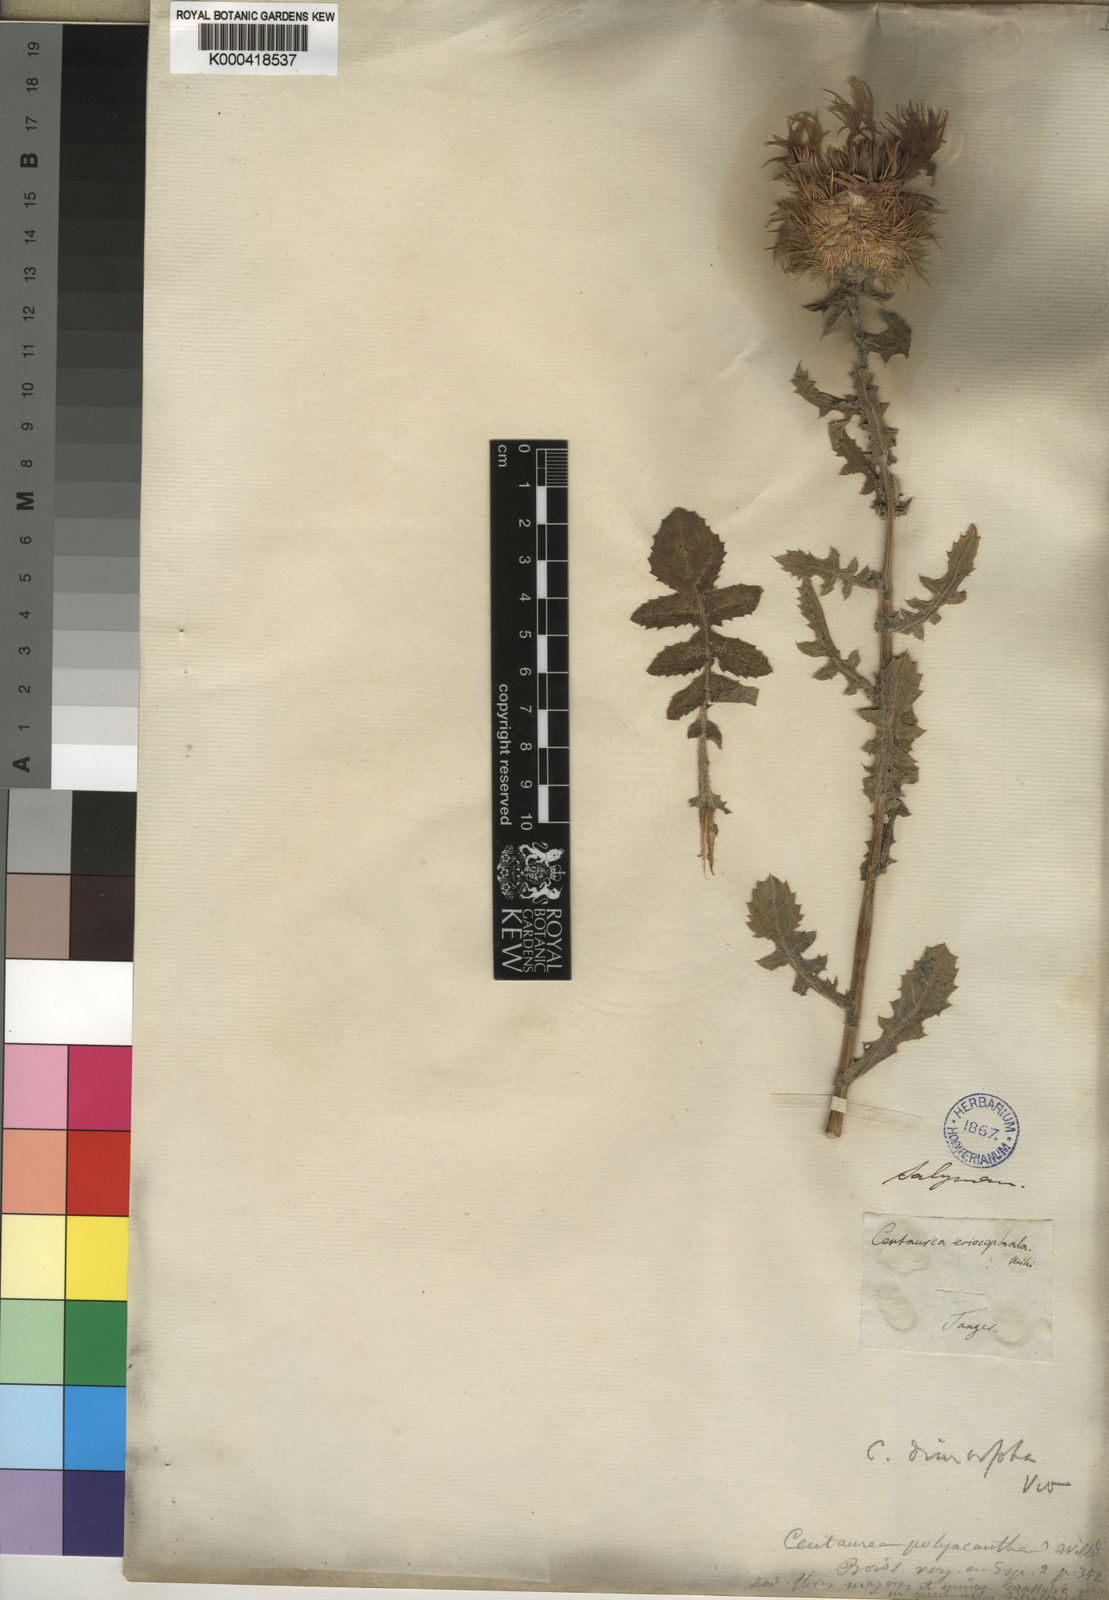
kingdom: Plantae
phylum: Tracheophyta
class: Magnoliopsida
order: Asterales
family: Asteraceae
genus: Centaurea
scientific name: Centaurea
